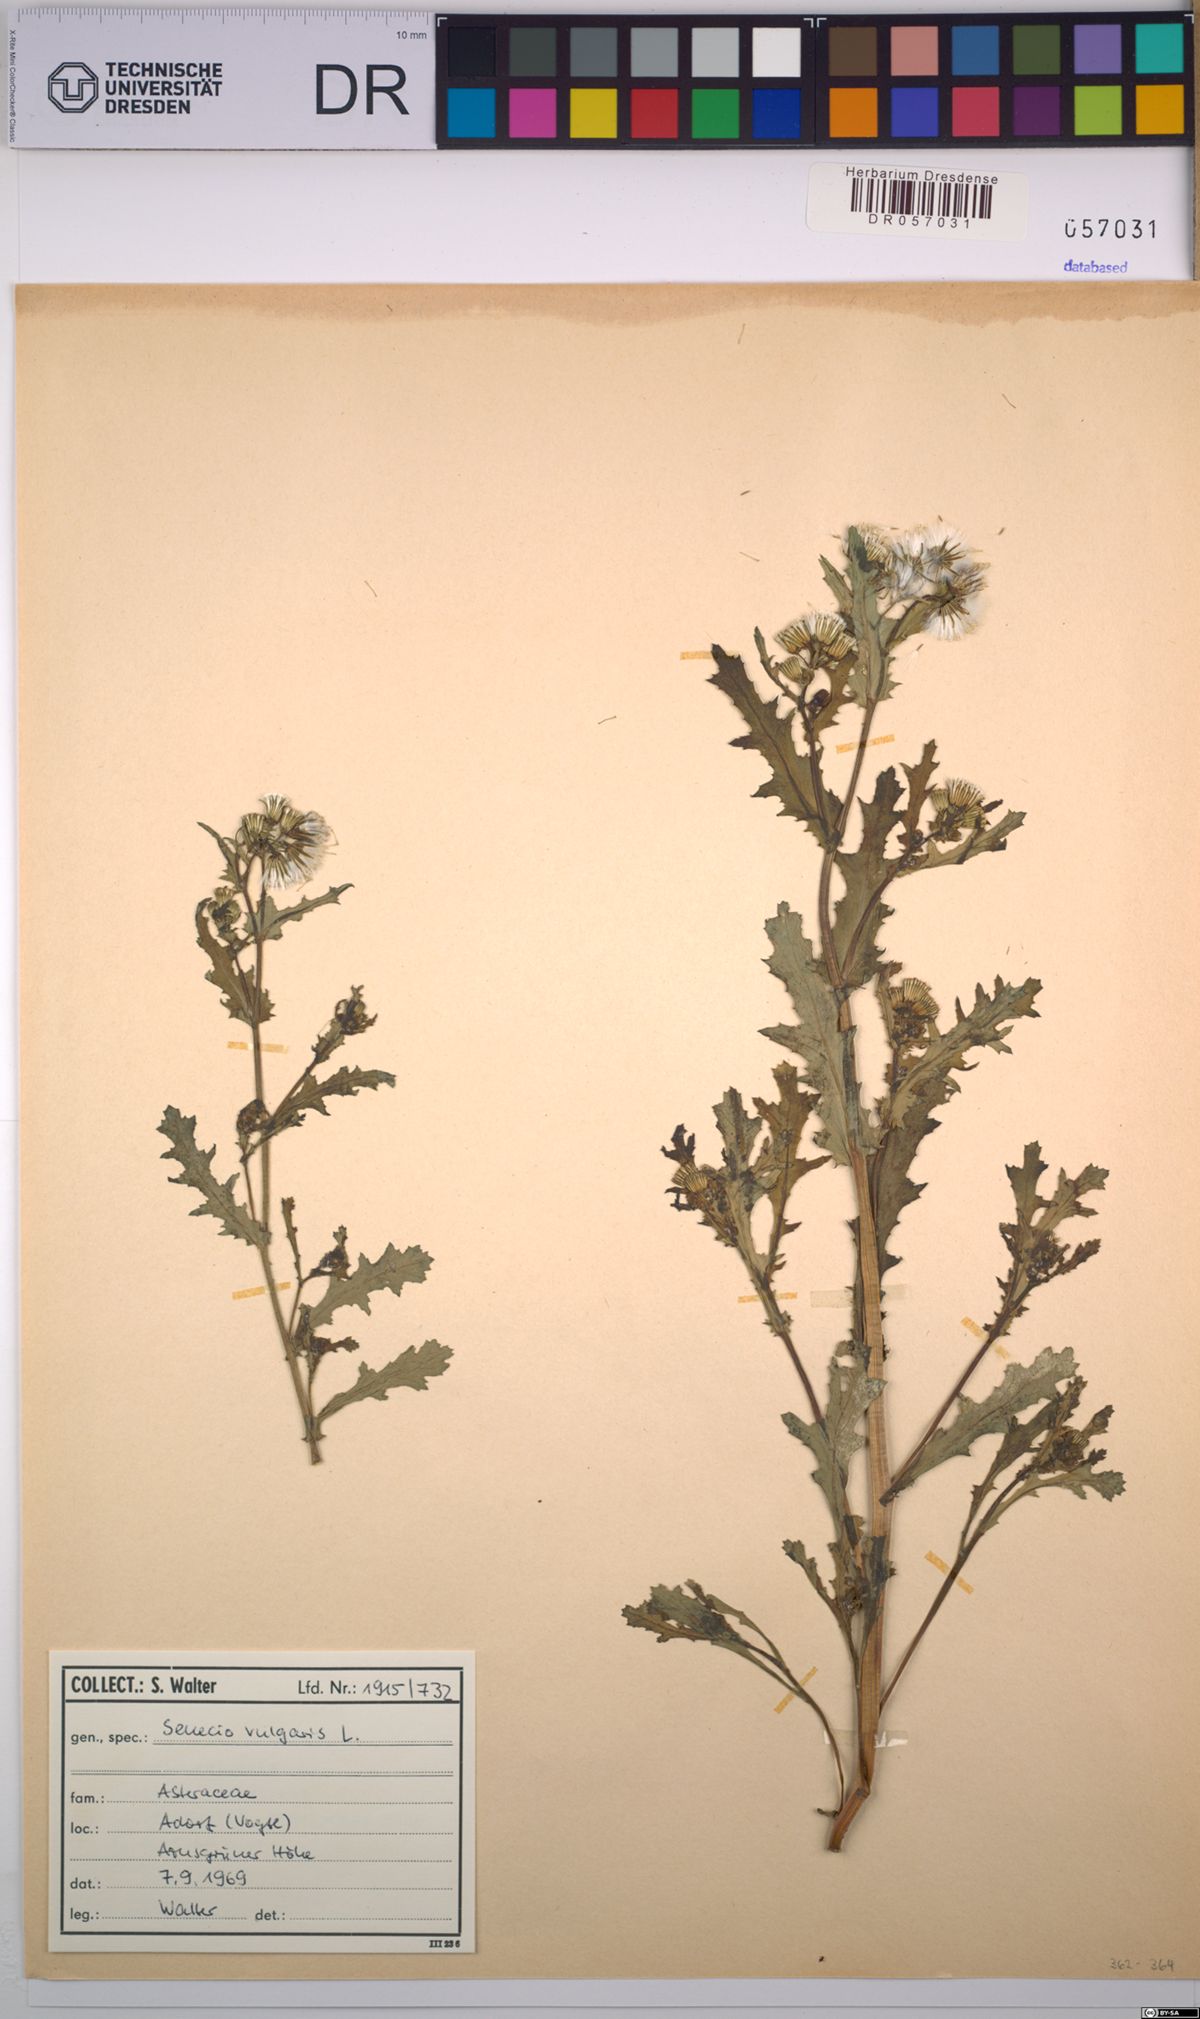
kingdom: Plantae
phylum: Tracheophyta
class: Magnoliopsida
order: Asterales
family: Asteraceae
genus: Senecio
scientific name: Senecio vulgaris
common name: Old-man-in-the-spring
